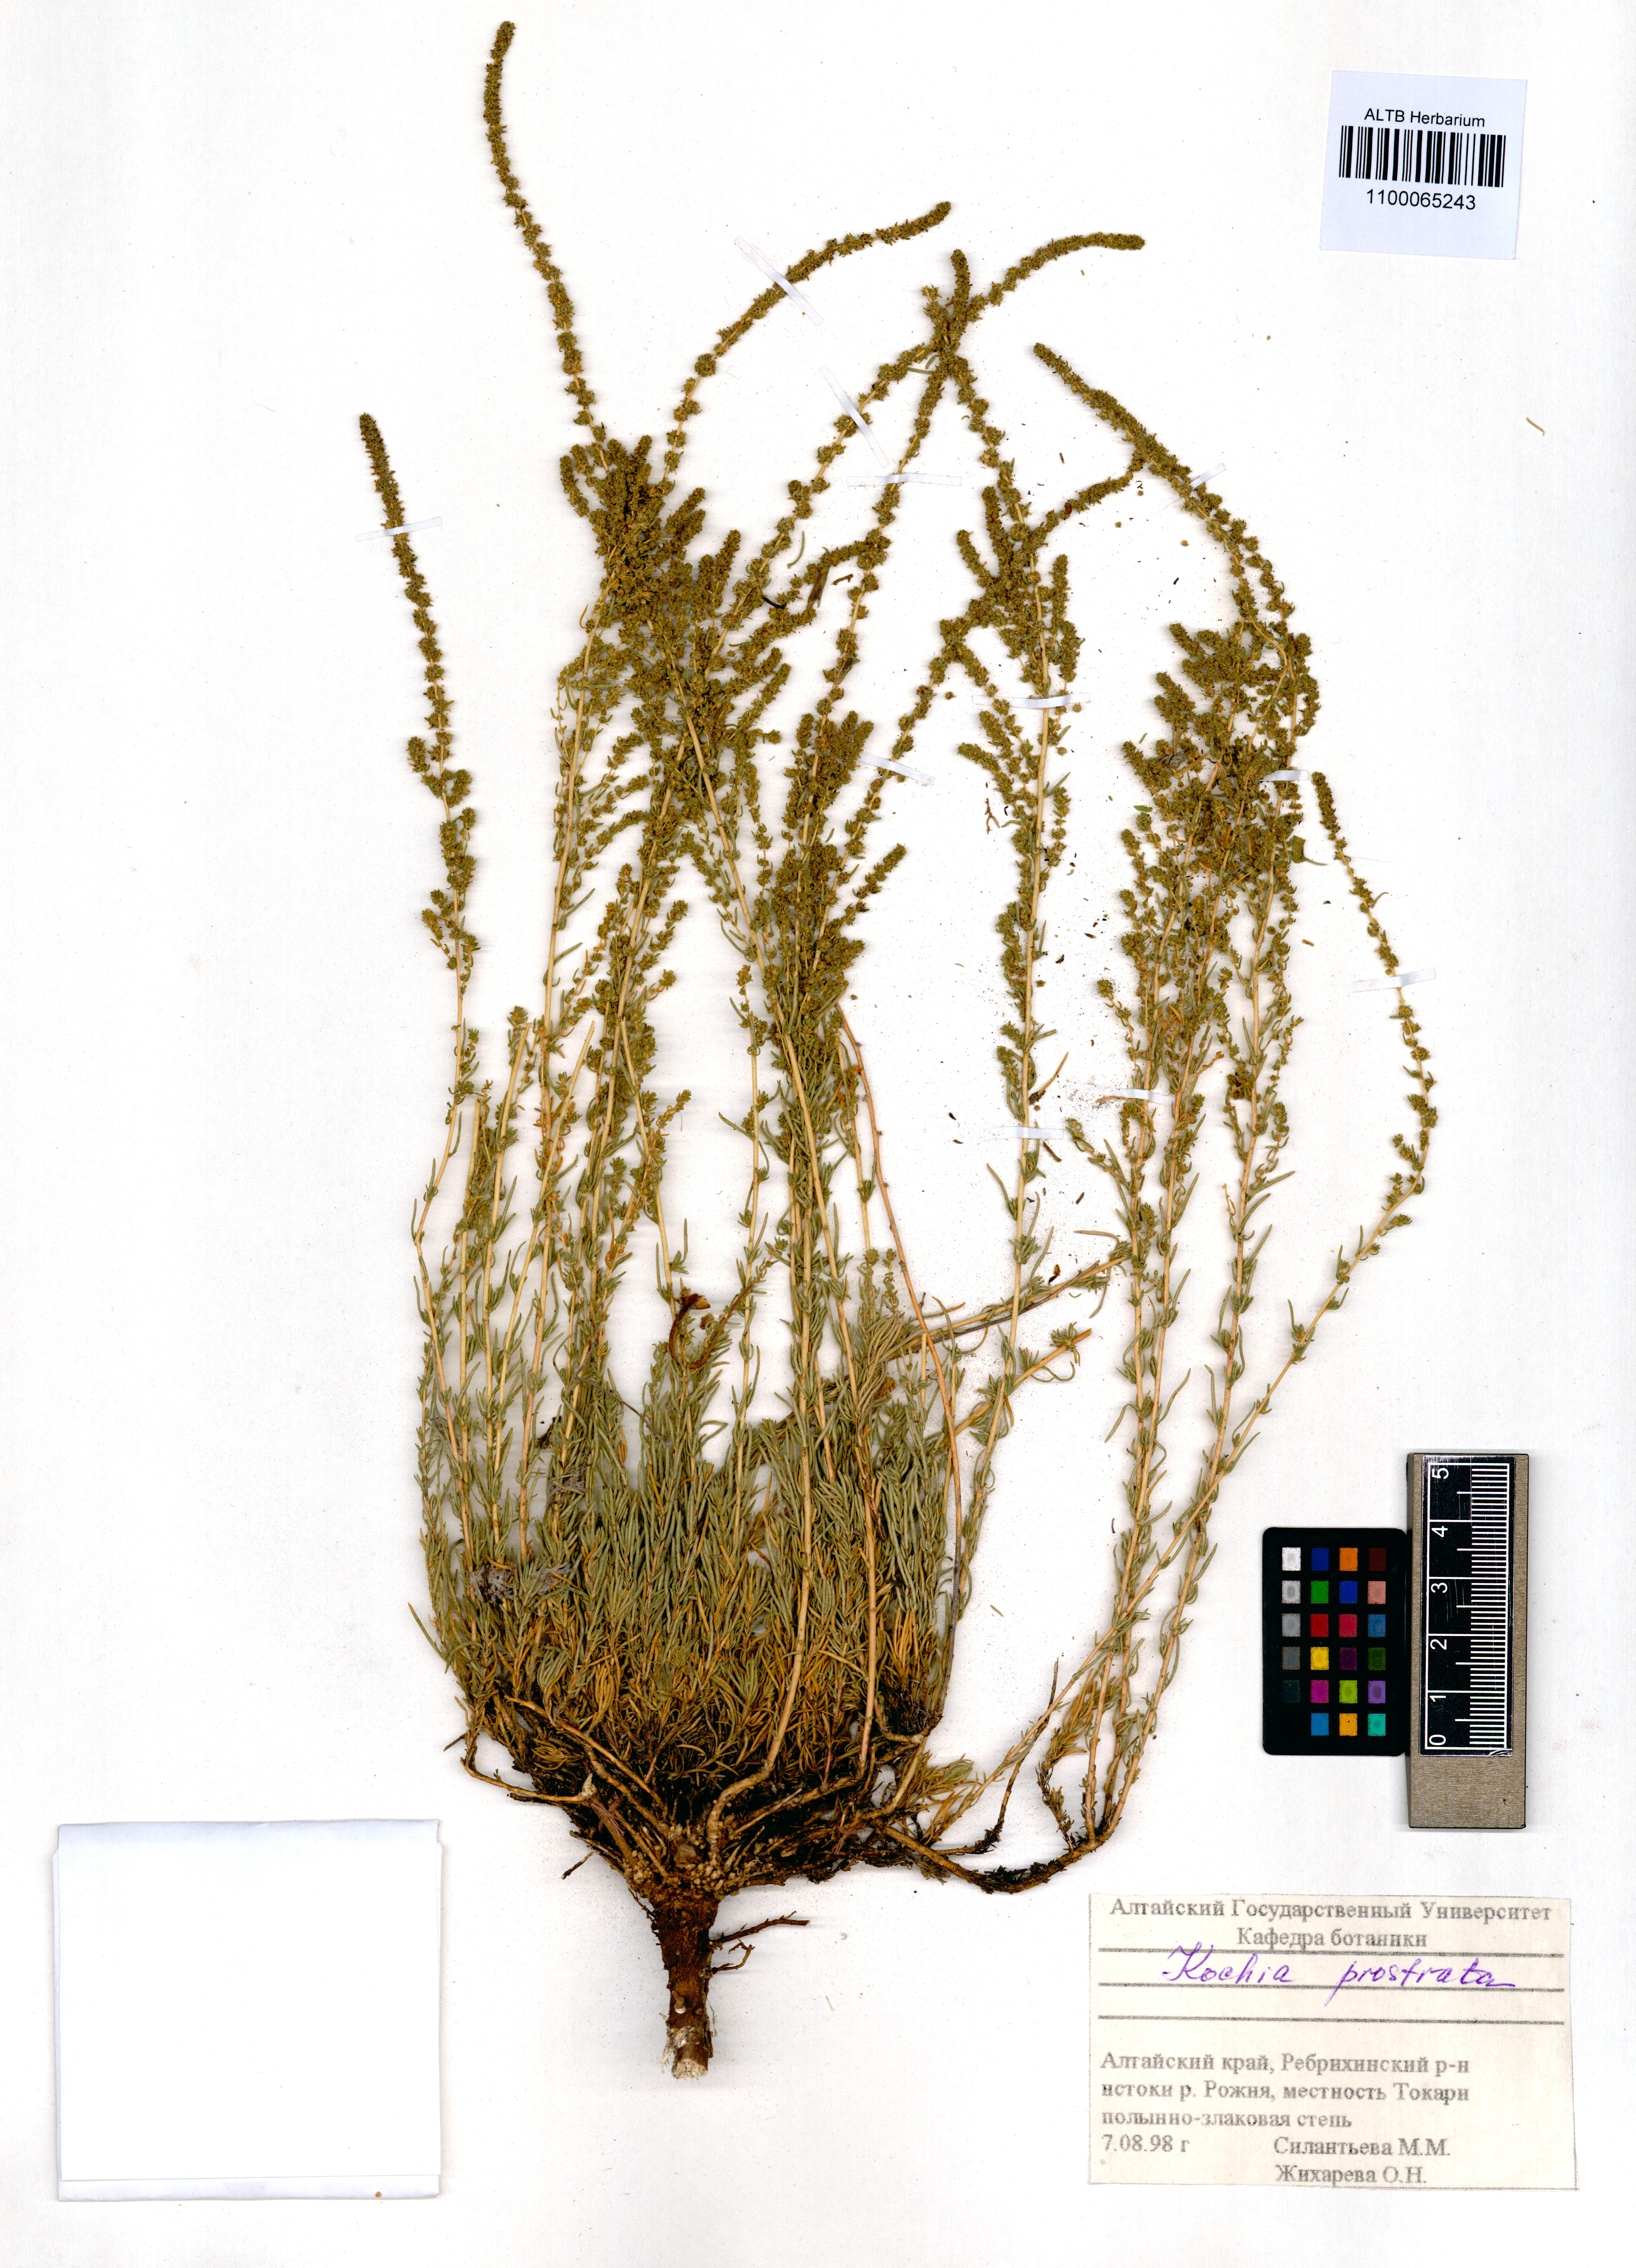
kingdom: Plantae
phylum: Tracheophyta
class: Magnoliopsida
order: Caryophyllales
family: Amaranthaceae
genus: Bassia
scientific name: Bassia prostrata
